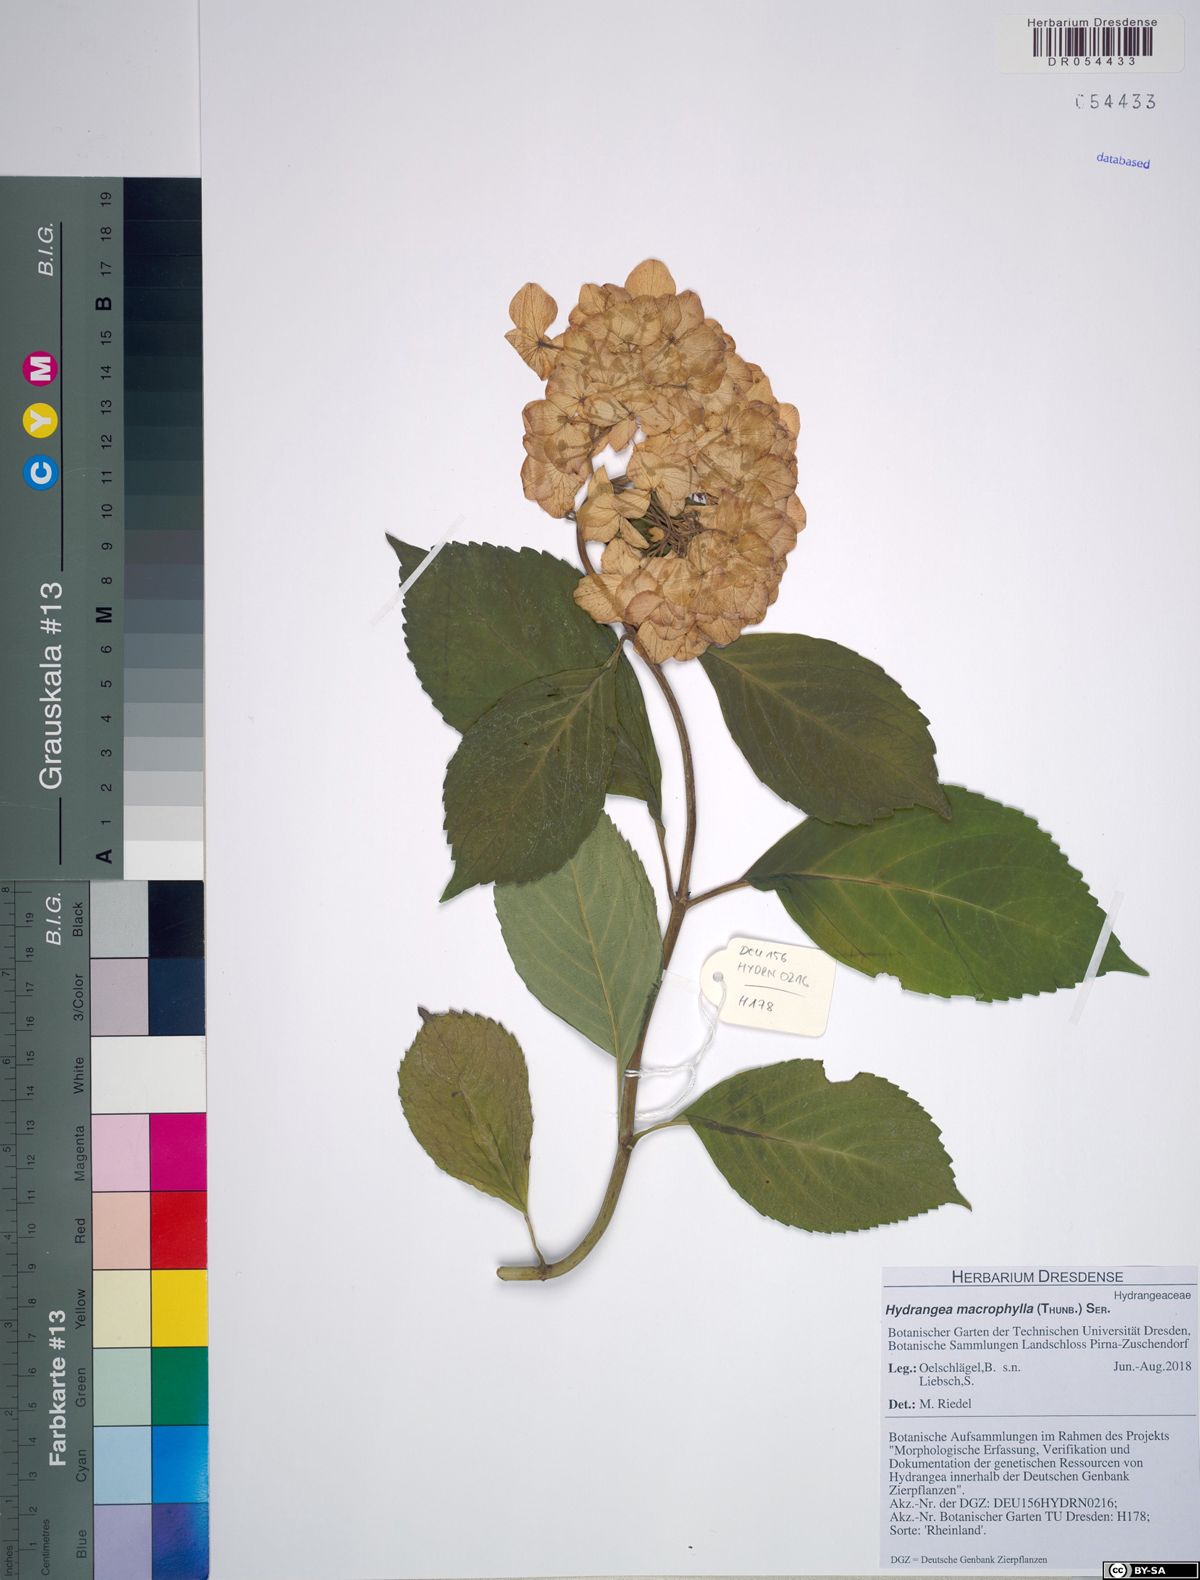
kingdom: Plantae
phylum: Tracheophyta
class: Magnoliopsida
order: Cornales
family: Hydrangeaceae
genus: Hydrangea
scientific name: Hydrangea macrophylla
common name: Hydrangea
